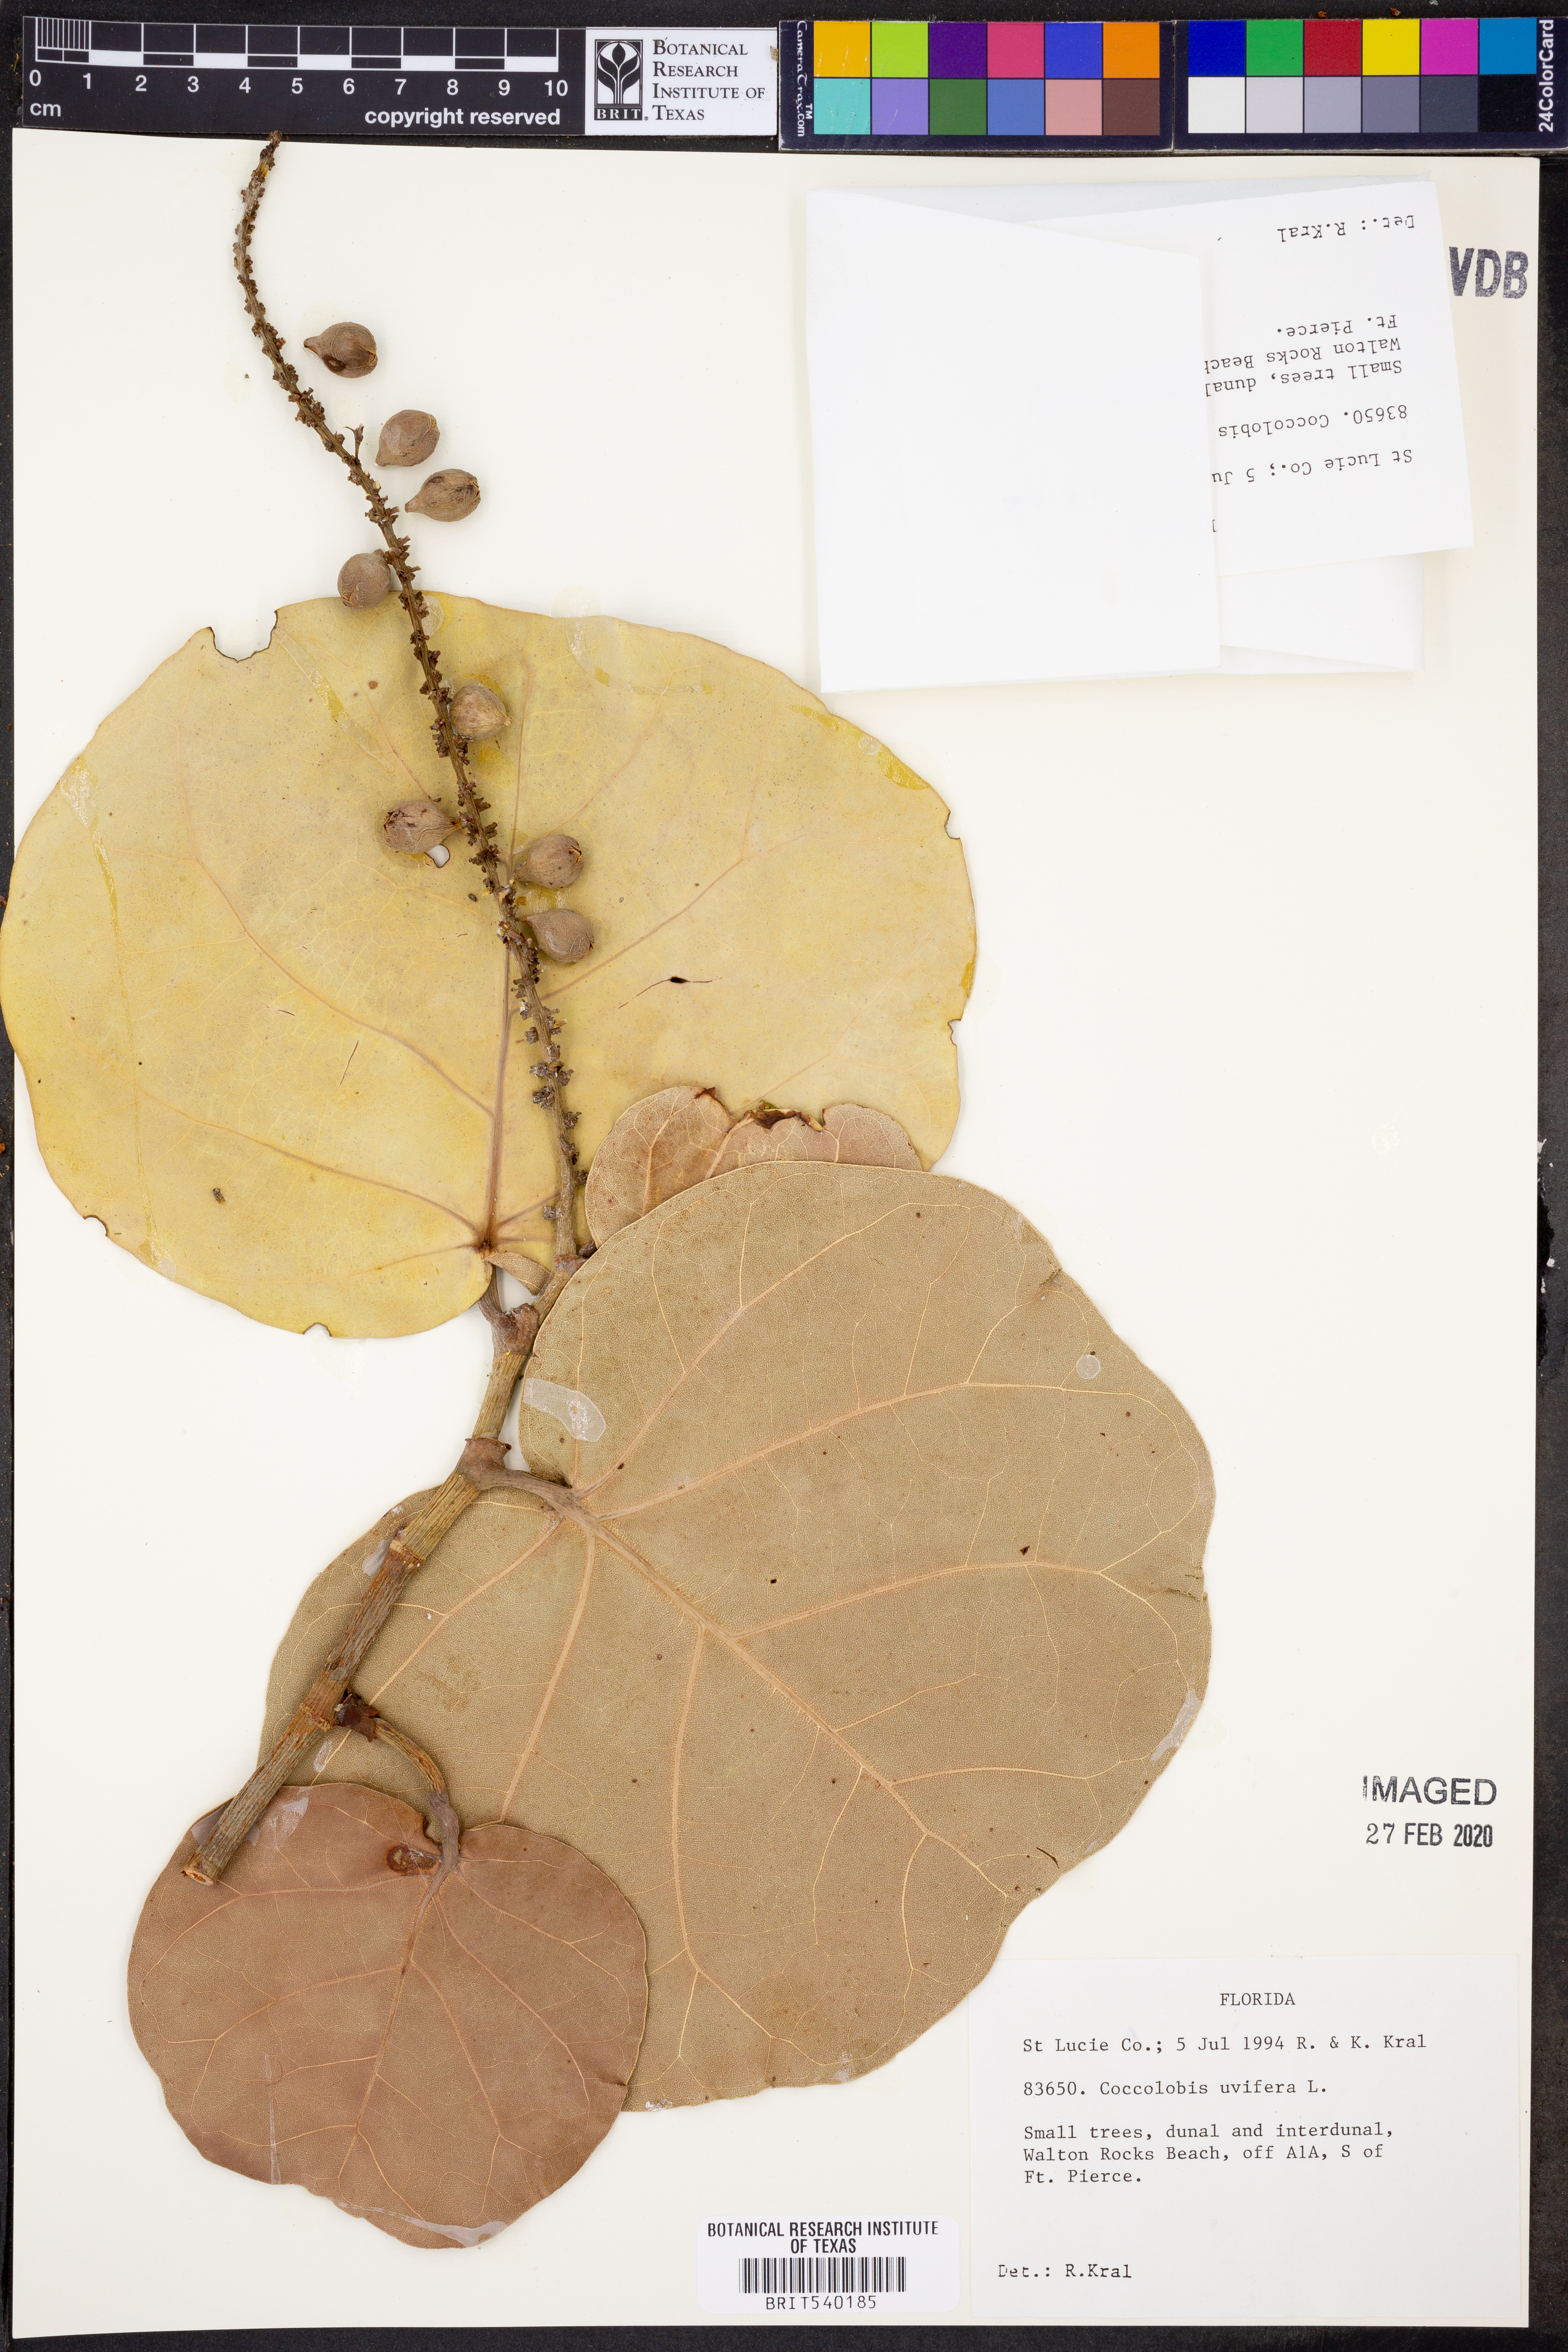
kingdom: Plantae
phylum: Tracheophyta
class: Magnoliopsida
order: Caryophyllales
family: Polygonaceae
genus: Coccoloba
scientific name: Coccoloba uvifera
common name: Seagrape
